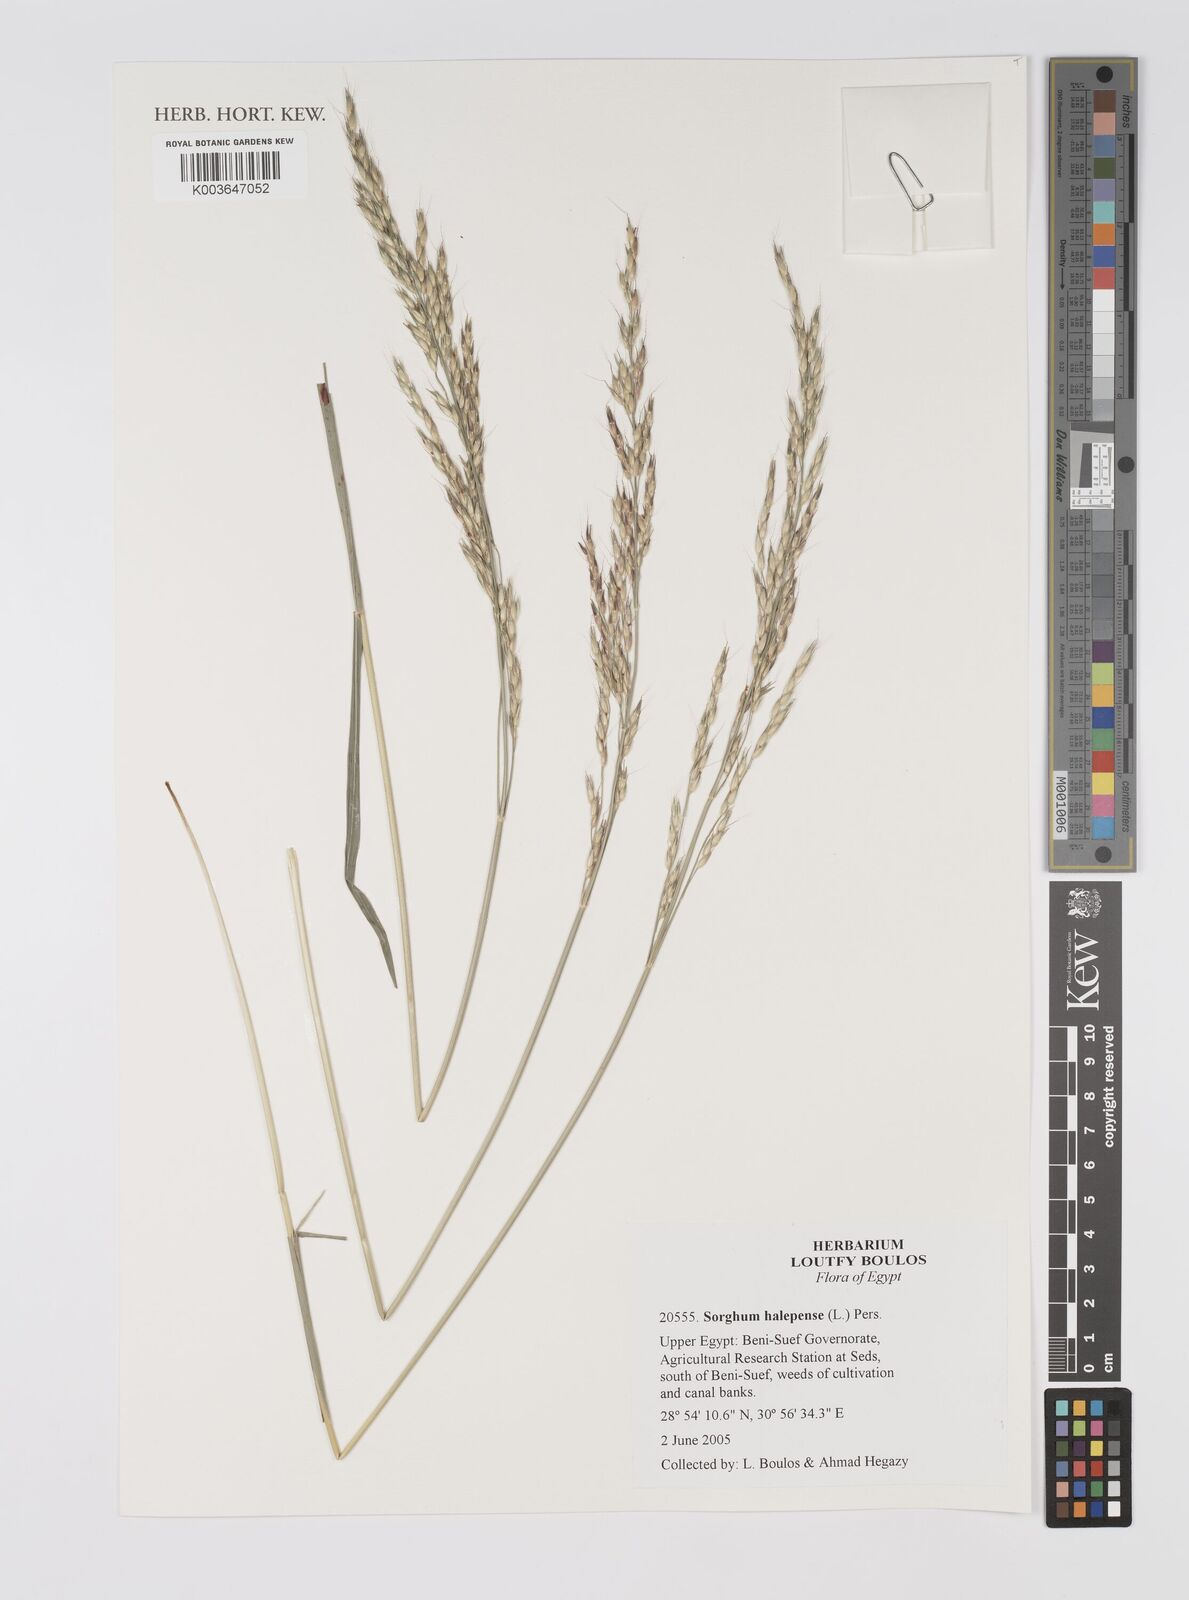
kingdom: Plantae
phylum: Tracheophyta
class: Liliopsida
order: Poales
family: Poaceae
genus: Sorghum
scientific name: Sorghum halepense
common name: Johnson-grass
